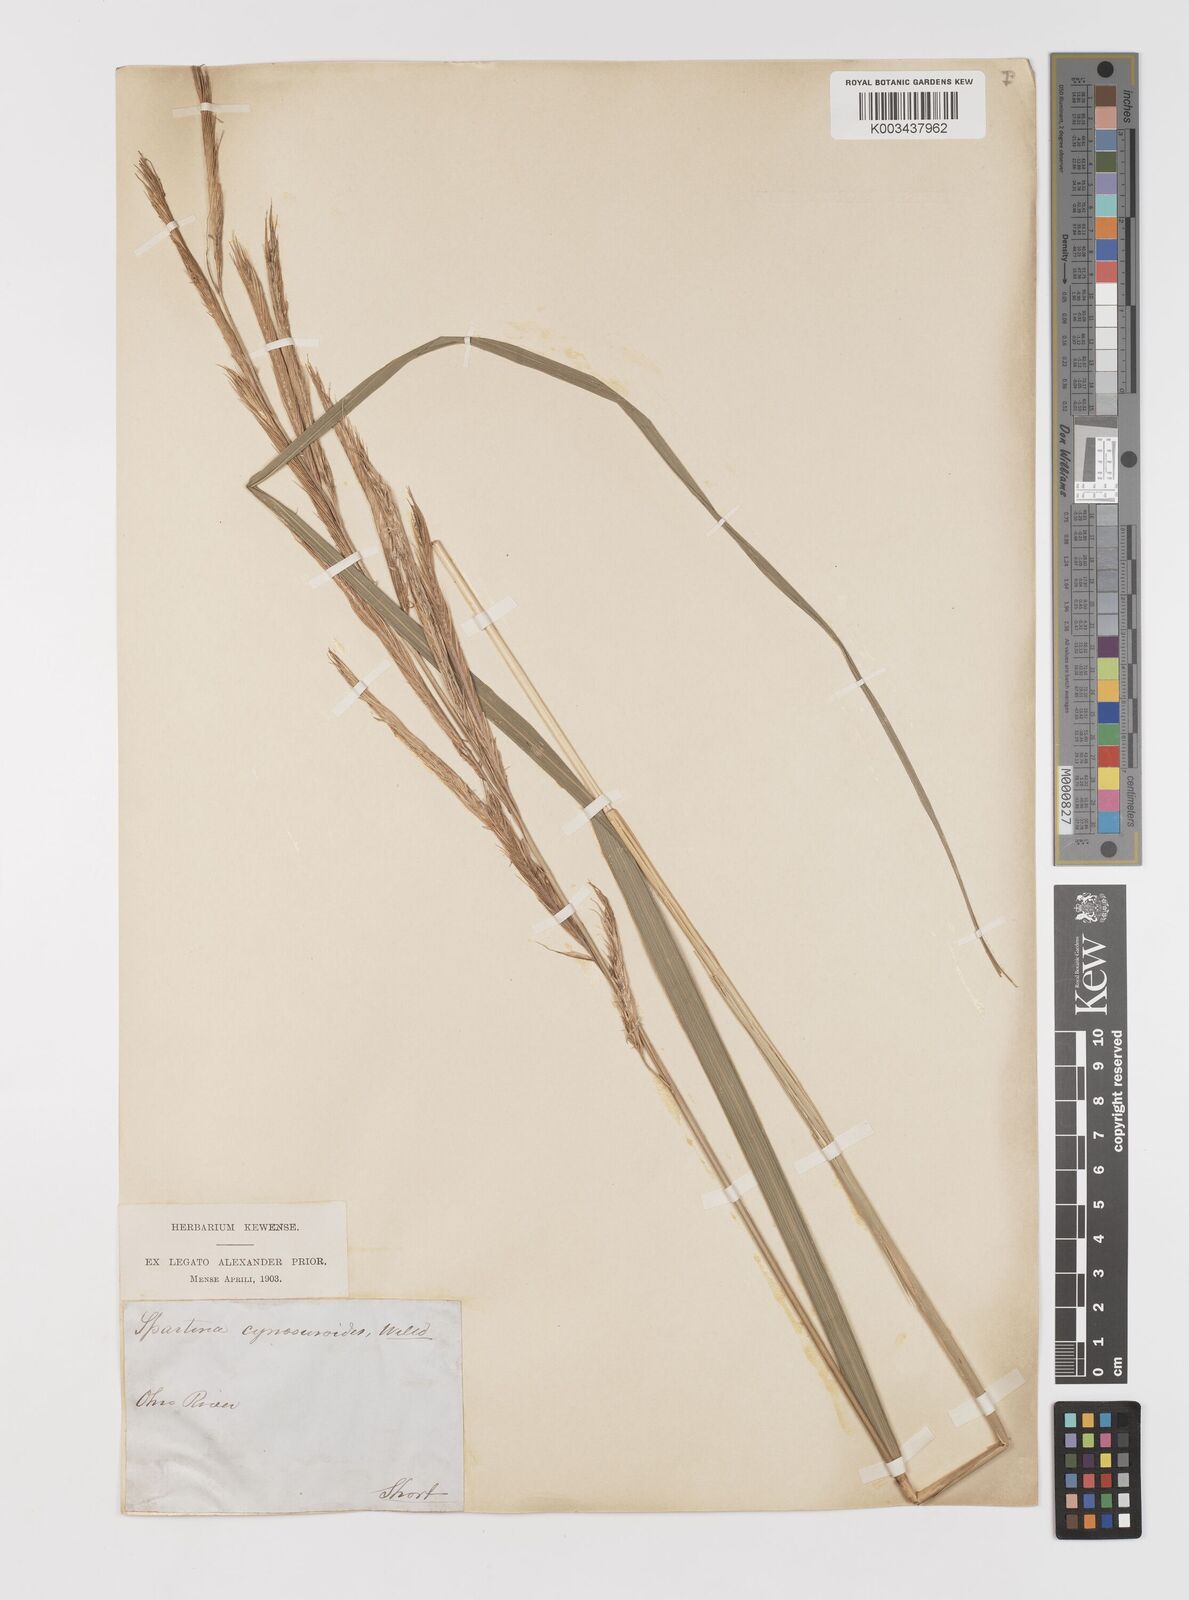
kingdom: Plantae
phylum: Tracheophyta
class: Liliopsida
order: Poales
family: Poaceae
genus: Sporobolus
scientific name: Sporobolus michauxianus
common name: Freshwater cordgrass
